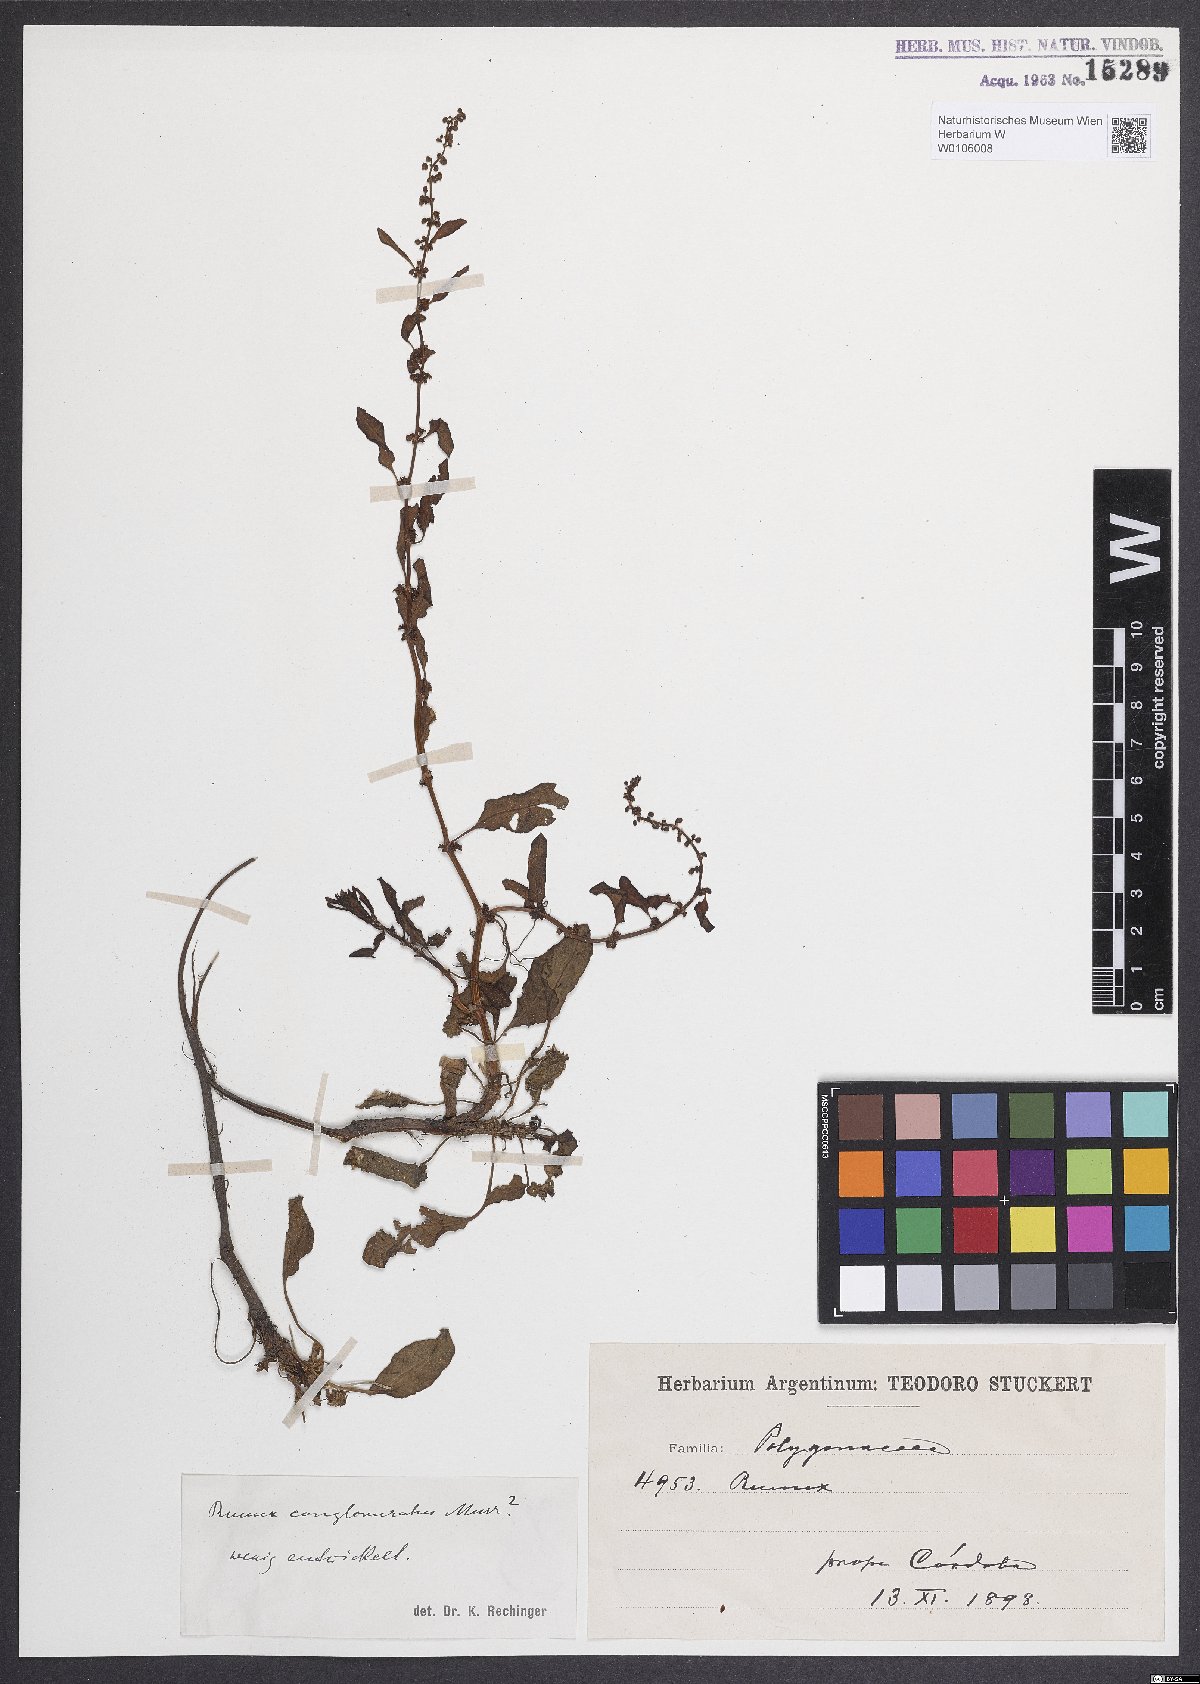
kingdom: Plantae
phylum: Tracheophyta
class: Magnoliopsida
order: Caryophyllales
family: Polygonaceae
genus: Rumex
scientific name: Rumex conglomeratus
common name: Clustered dock
